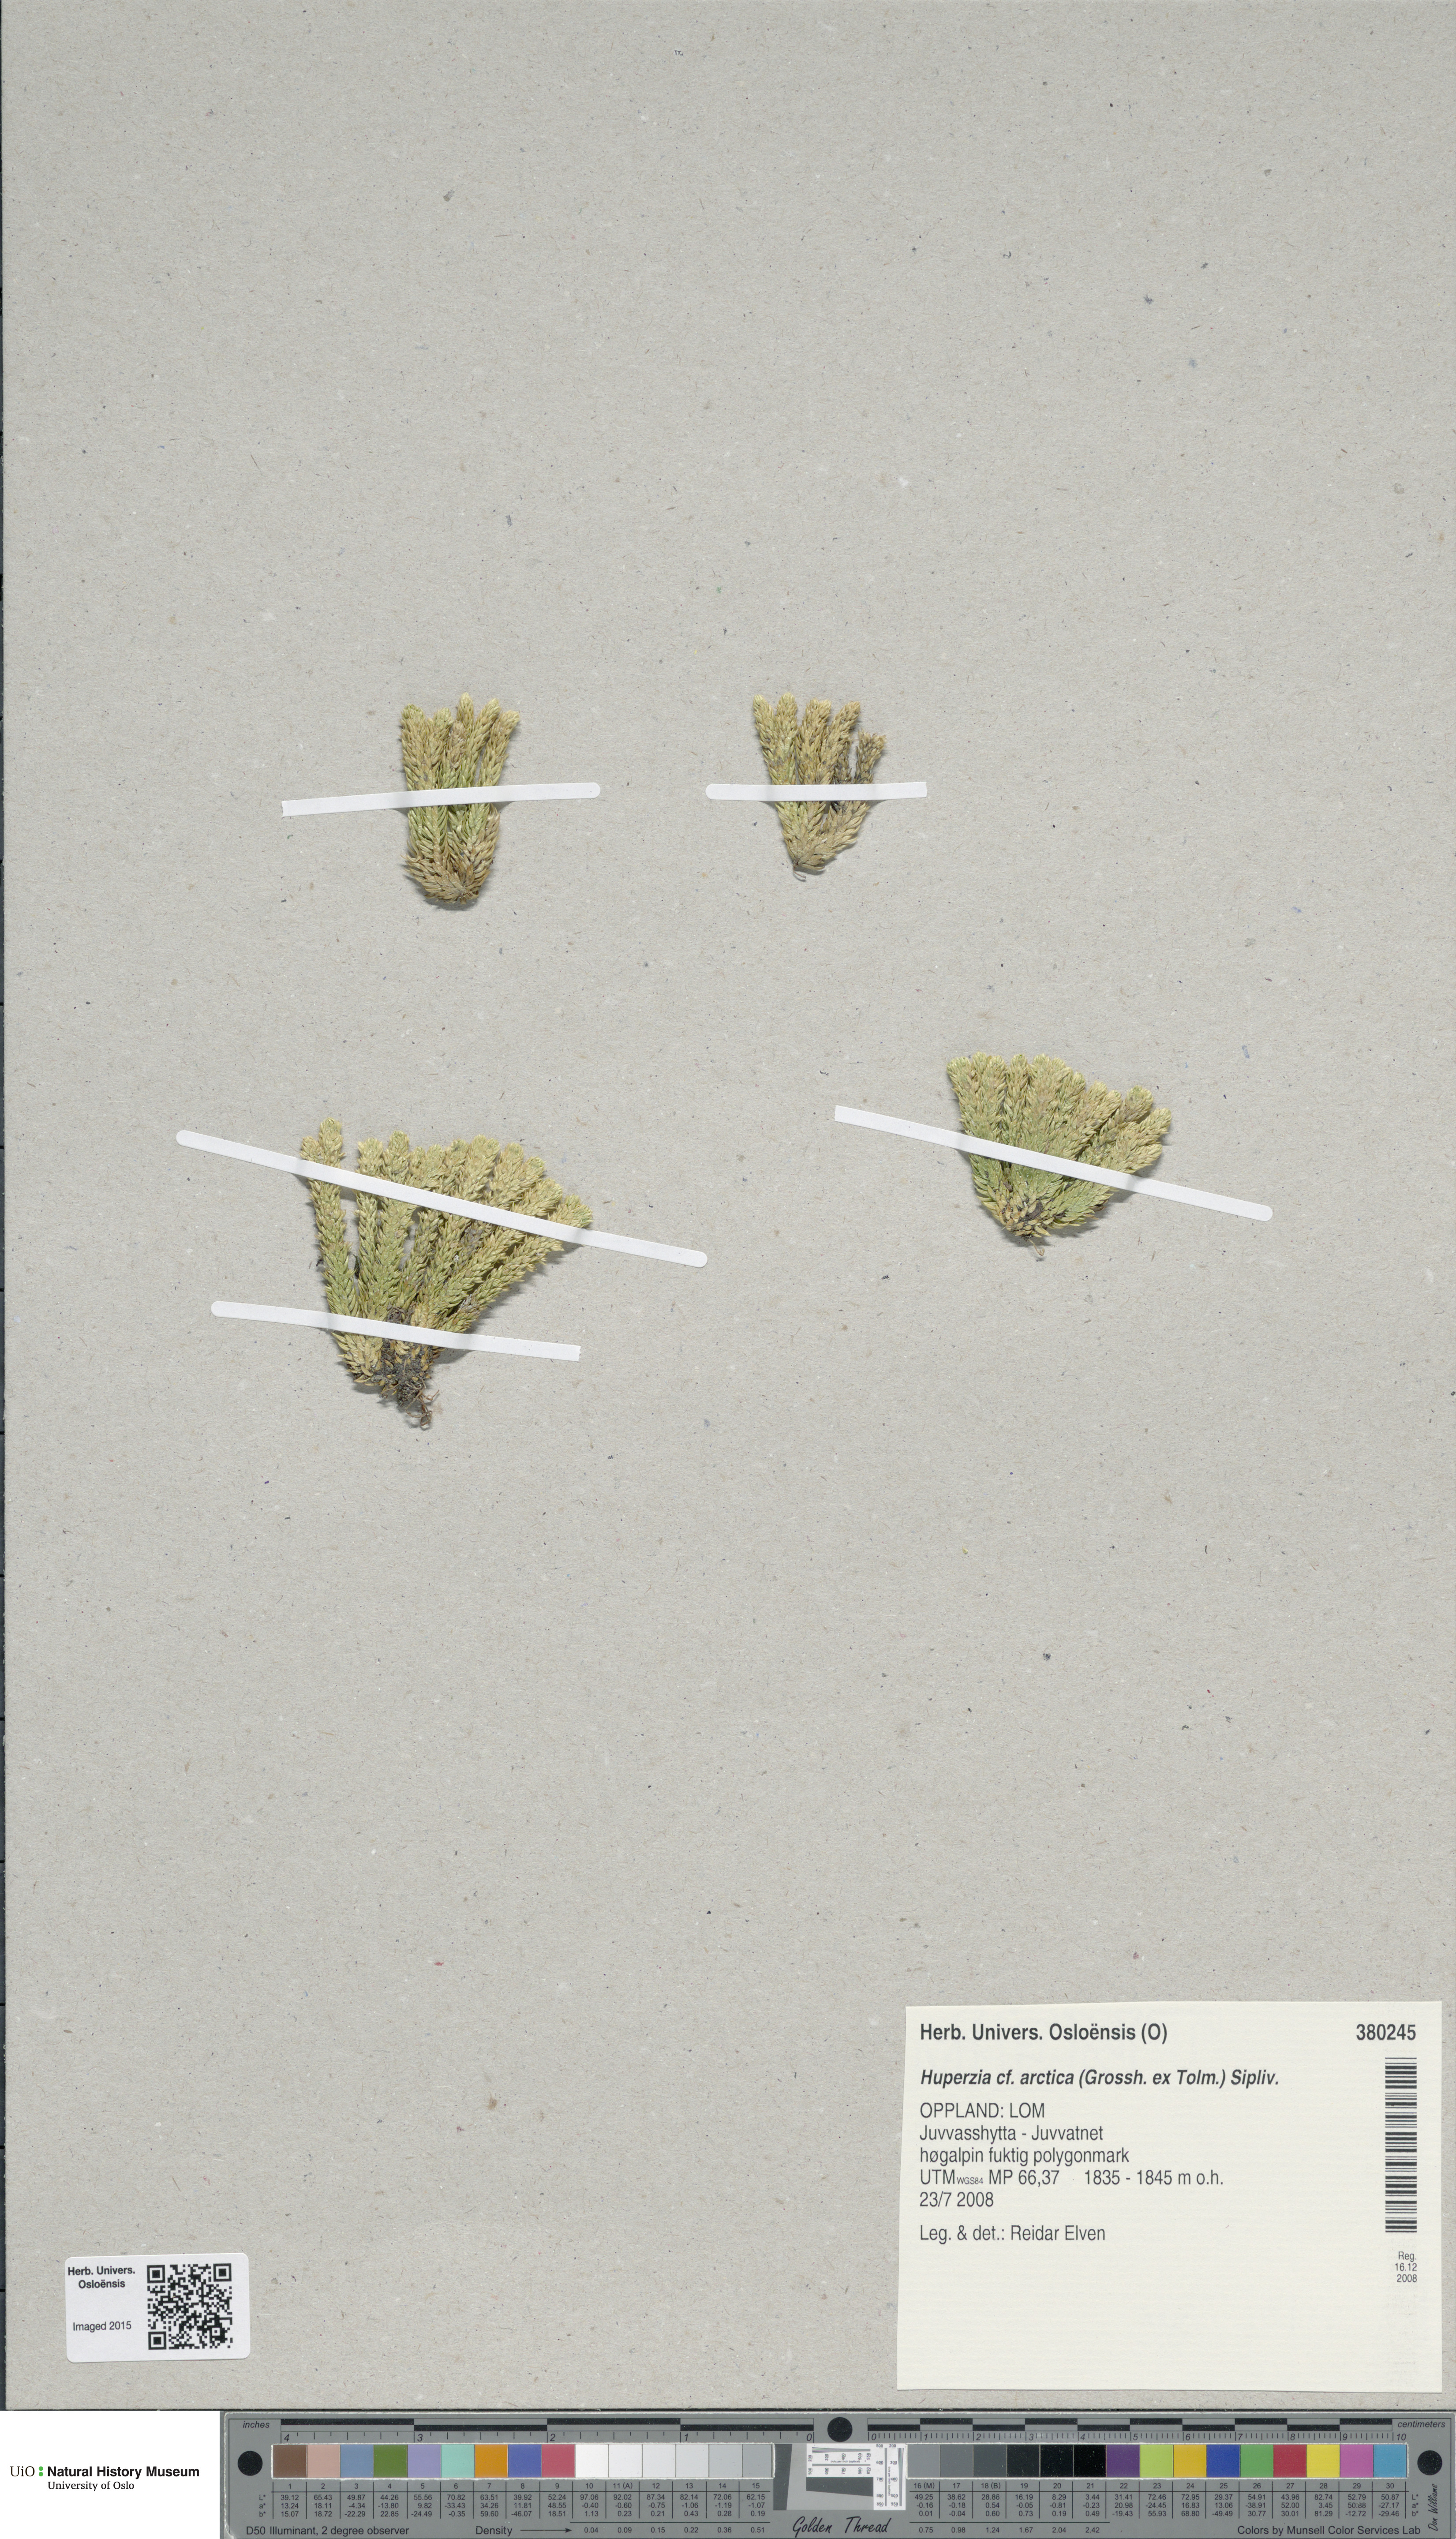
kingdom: Plantae
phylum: Tracheophyta
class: Lycopodiopsida
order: Lycopodiales
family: Lycopodiaceae
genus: Huperzia
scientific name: Huperzia selago
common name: Northern firmoss
